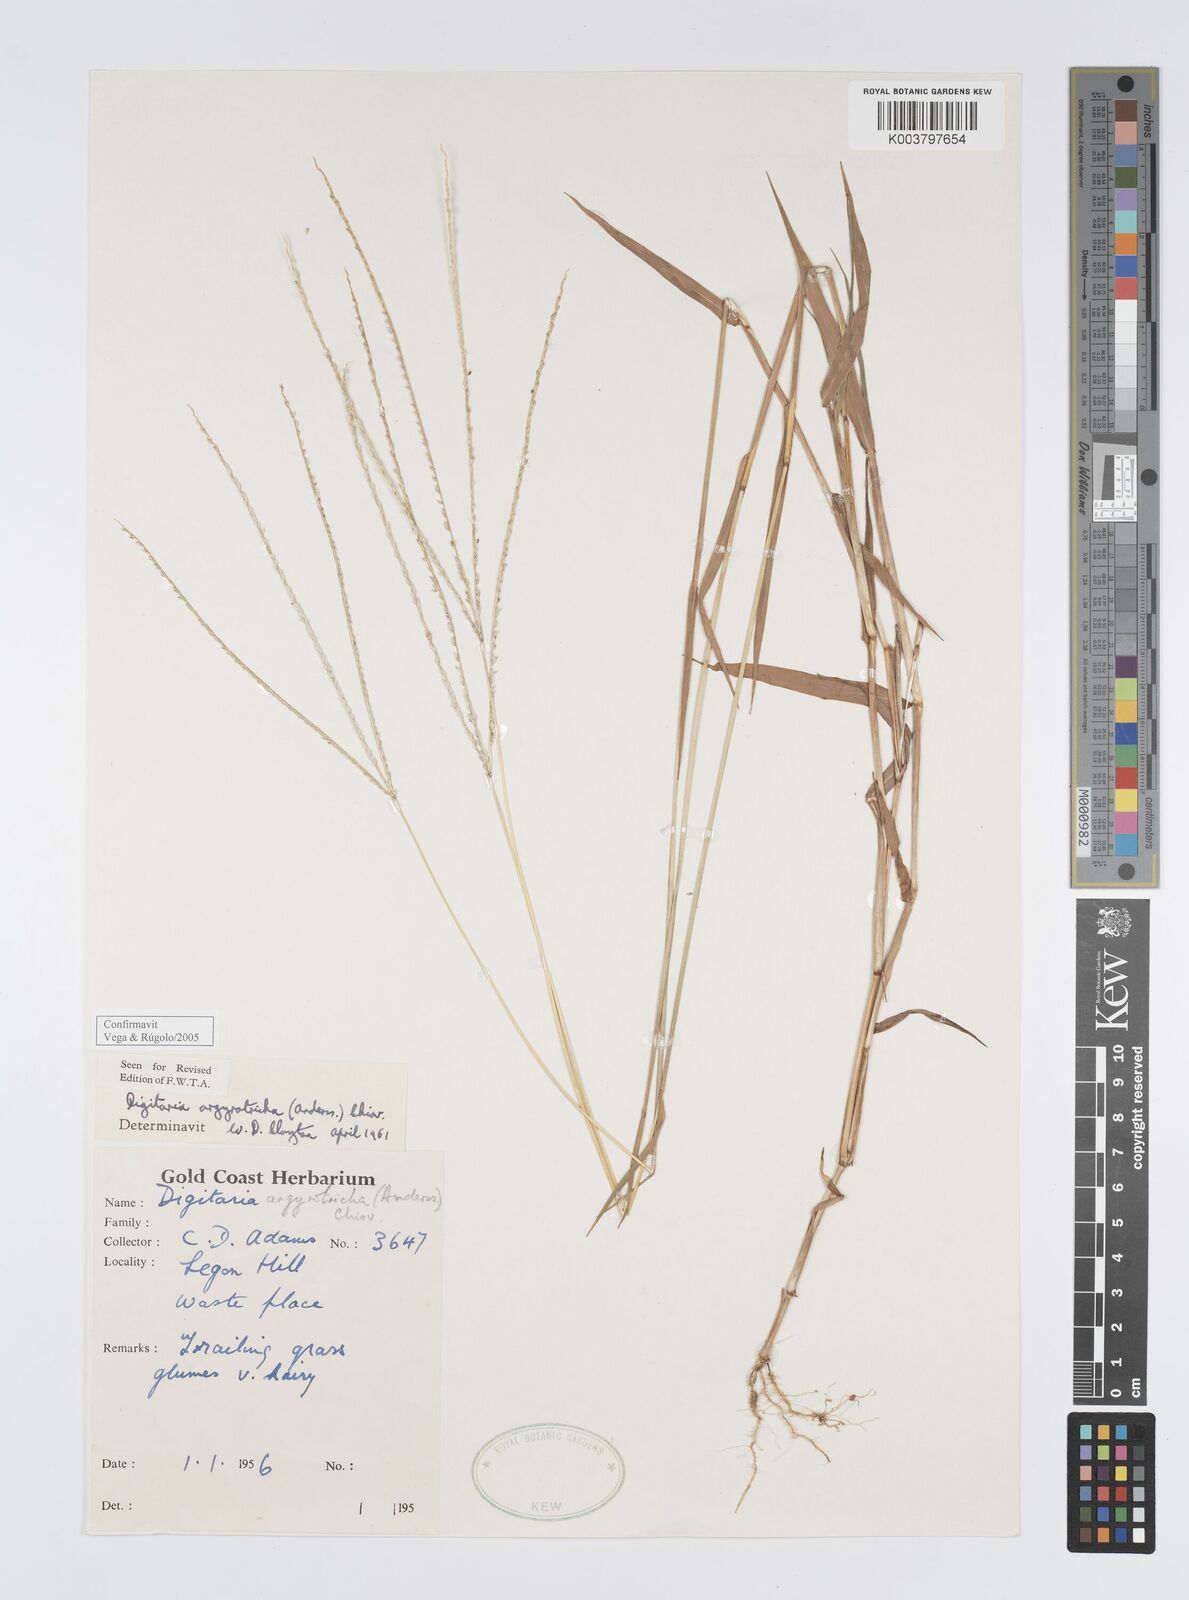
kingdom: Plantae
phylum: Tracheophyta
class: Liliopsida
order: Poales
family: Poaceae
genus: Digitaria
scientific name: Digitaria argyrotricha
